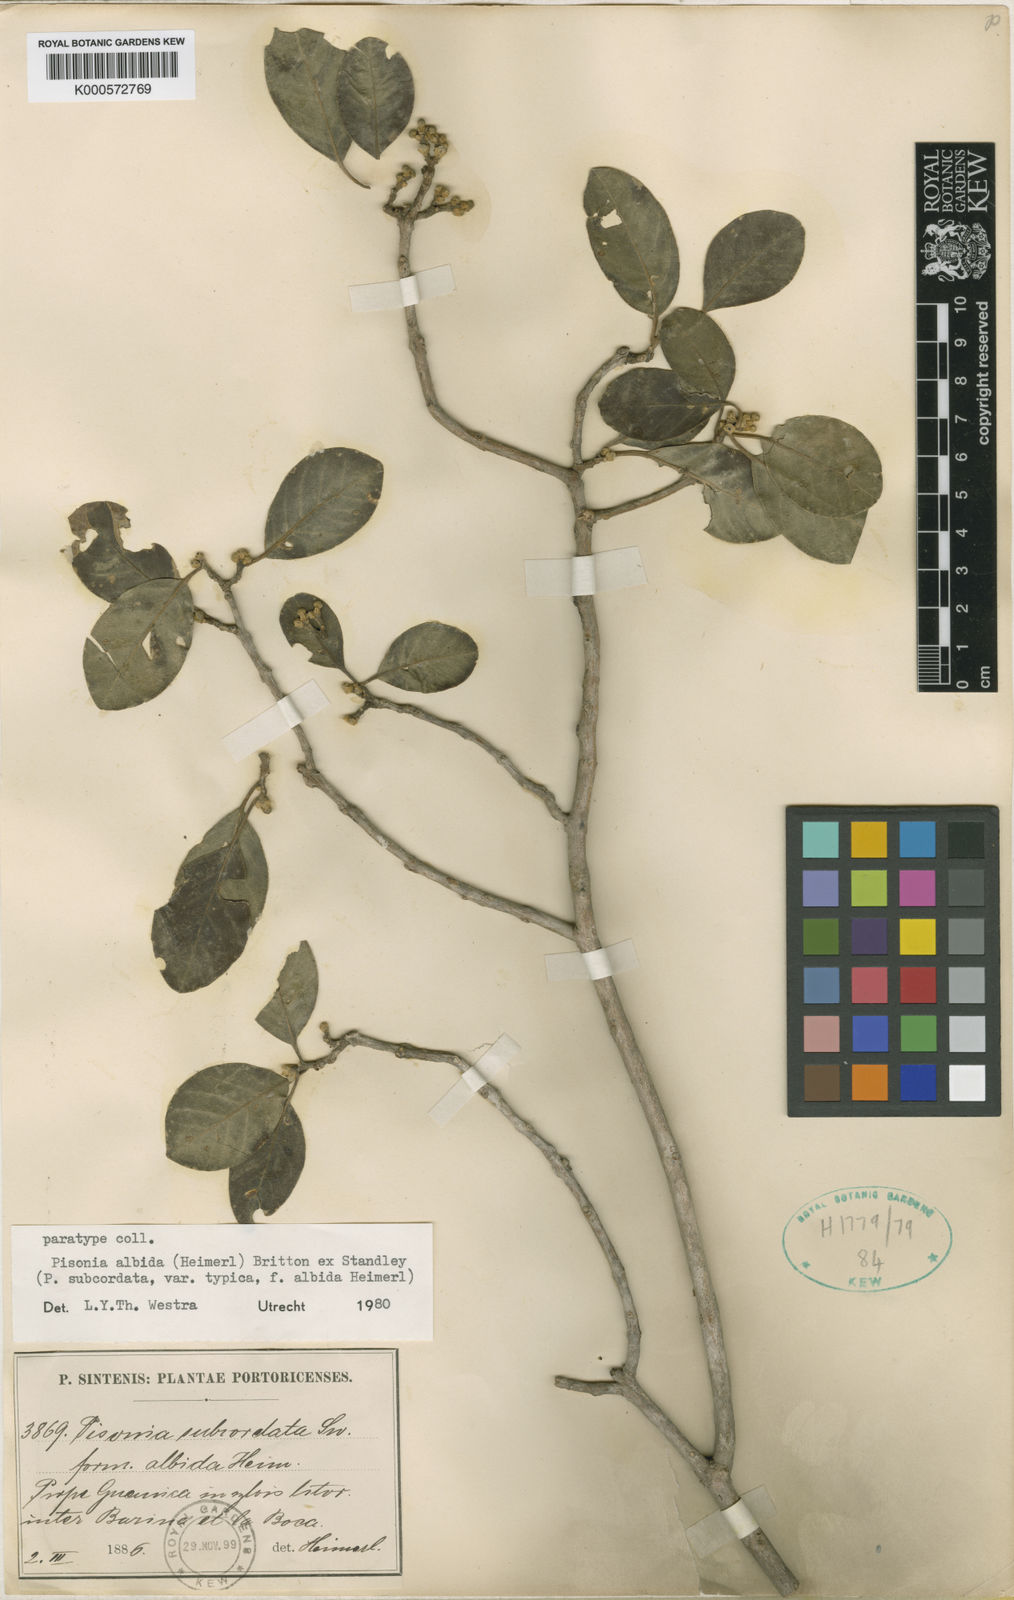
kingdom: Plantae
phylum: Tracheophyta
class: Magnoliopsida
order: Caryophyllales
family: Nyctaginaceae
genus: Pisonia
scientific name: Pisonia
